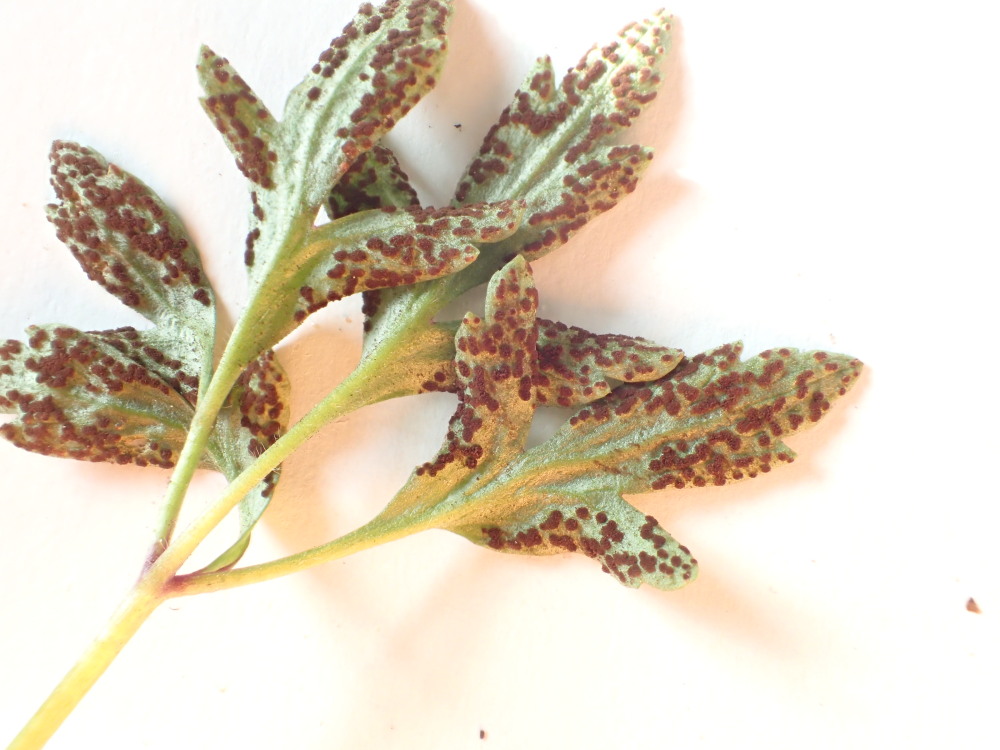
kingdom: Fungi
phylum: Basidiomycota
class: Pucciniomycetes
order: Pucciniales
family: Tranzscheliaceae
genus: Tranzschelia
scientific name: Tranzschelia anemones
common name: anemone-knæksporerust
